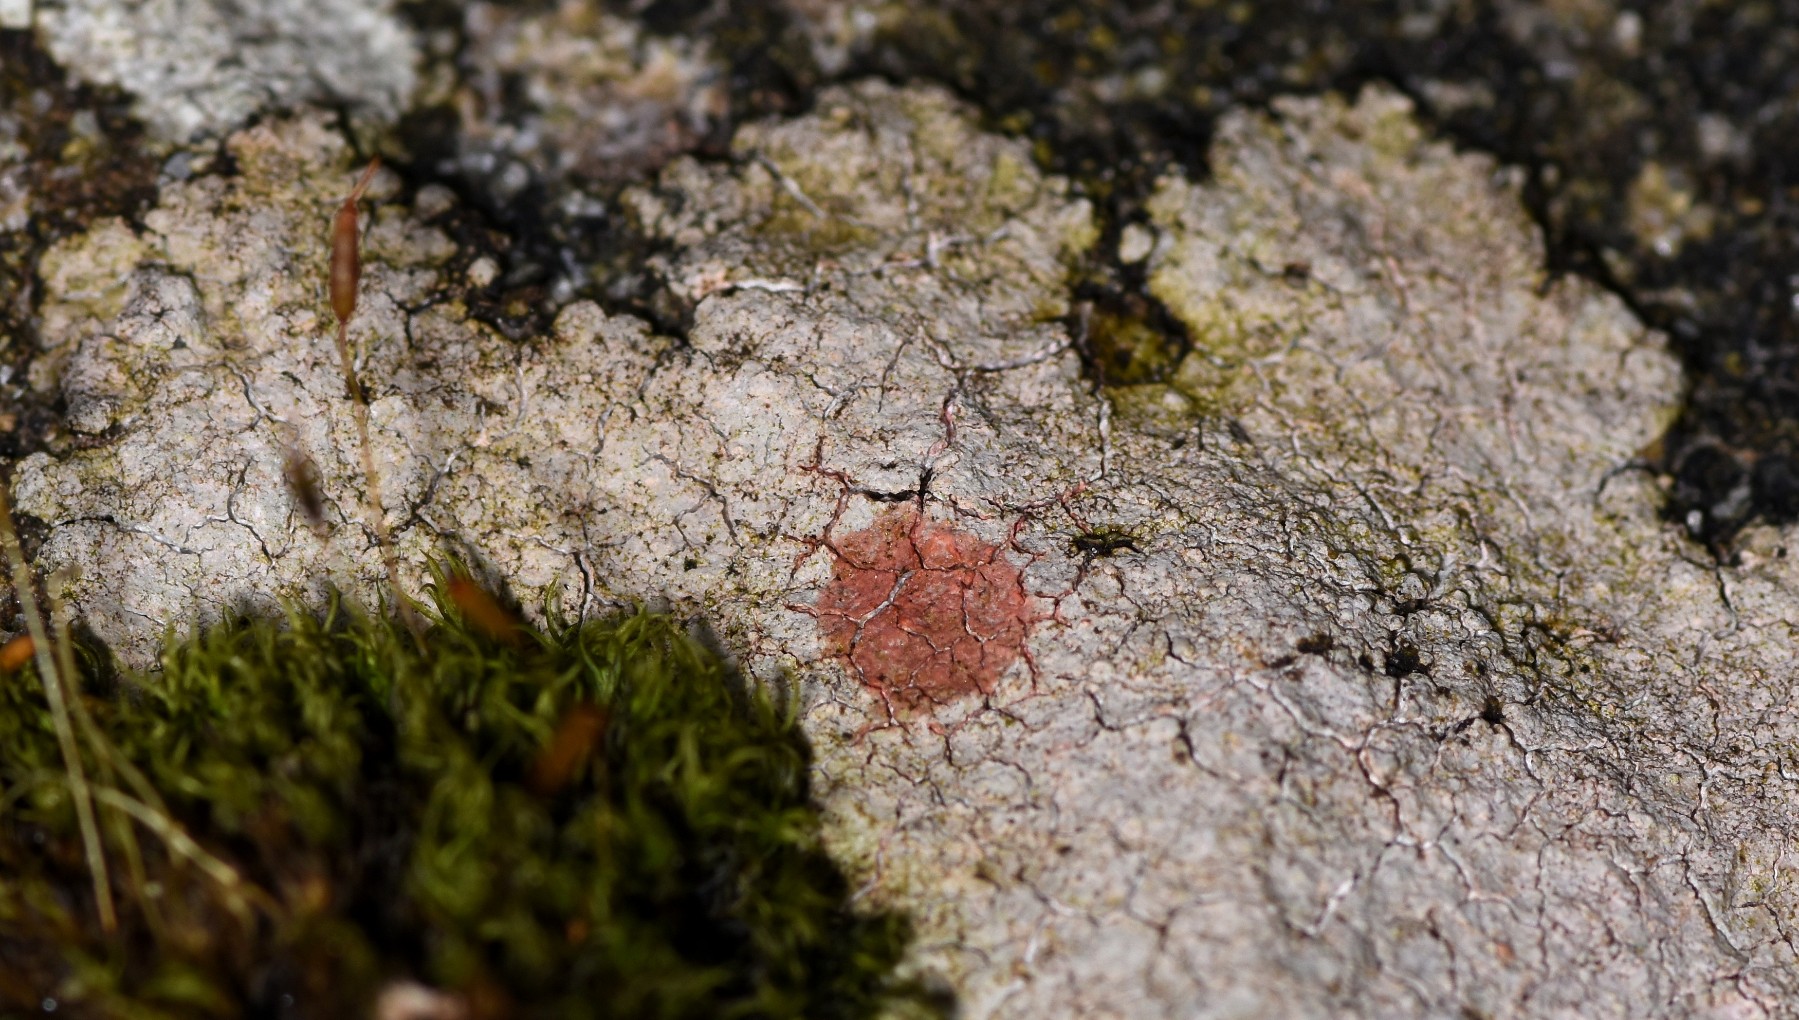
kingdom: Fungi
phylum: Ascomycota
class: Lecanoromycetes
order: Baeomycetales
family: Trapeliaceae
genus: Kleopowiella
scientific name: Kleopowiella placodioides
